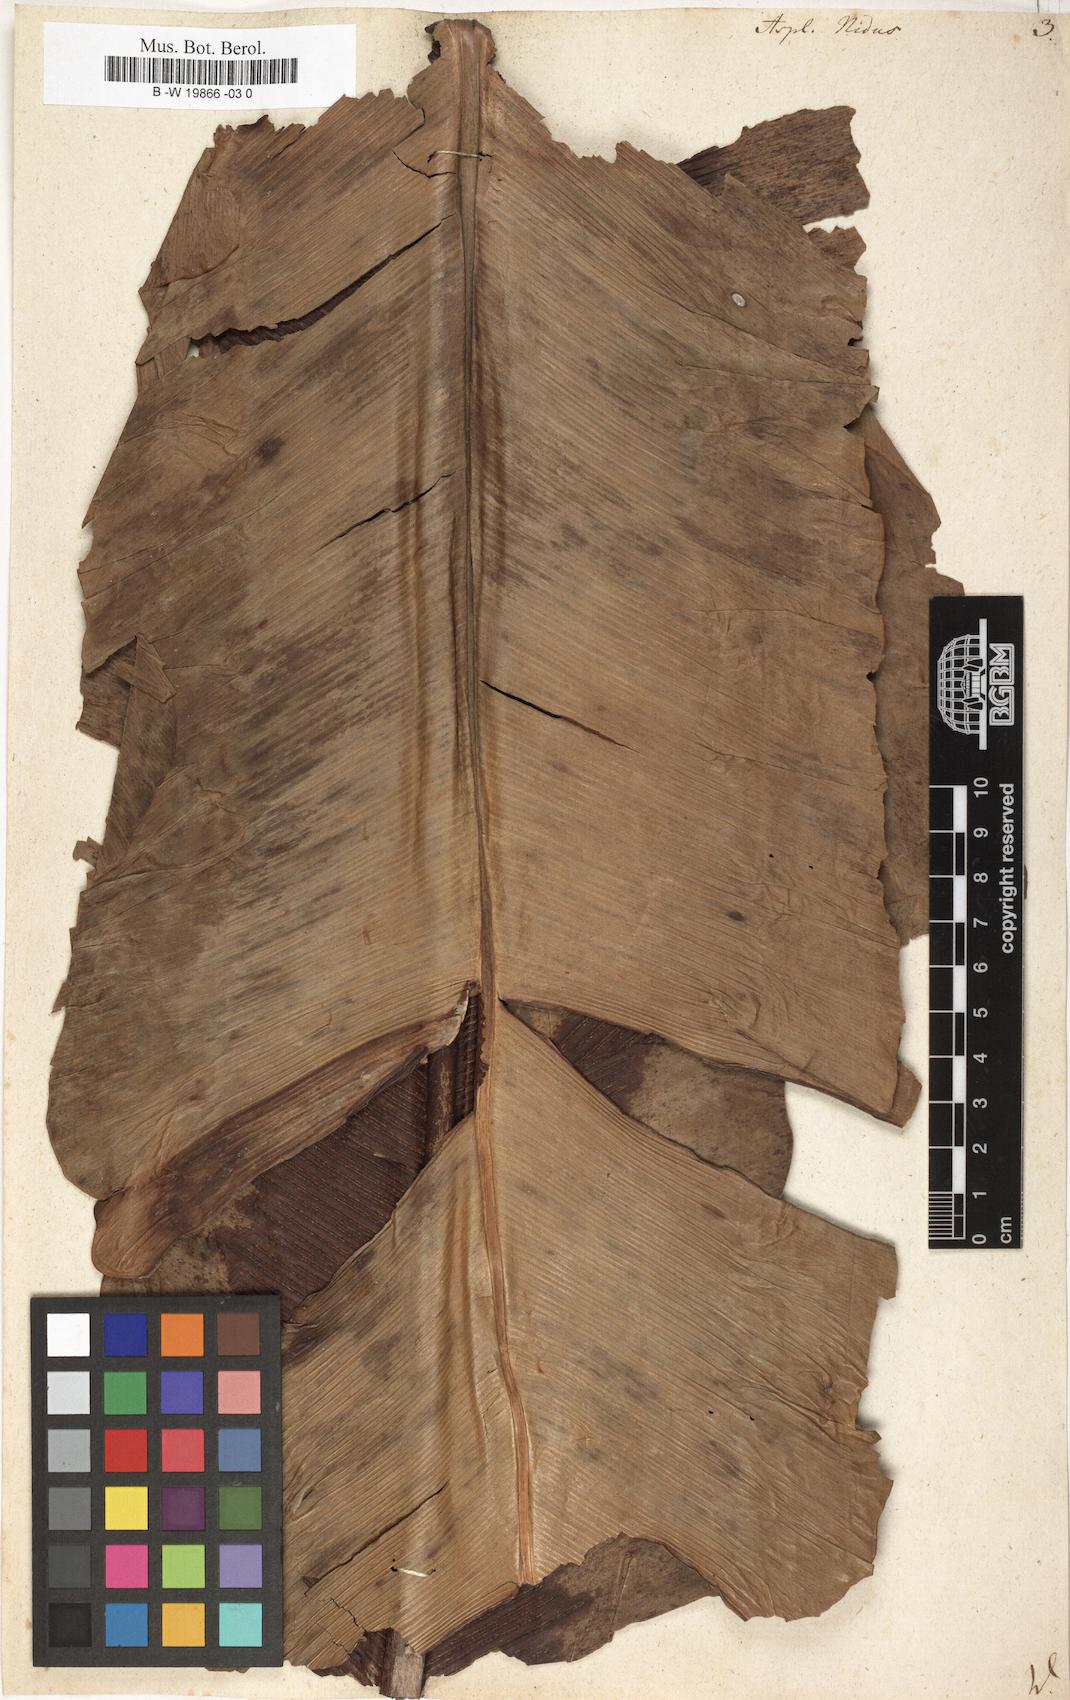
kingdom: Plantae
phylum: Tracheophyta
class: Polypodiopsida
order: Polypodiales
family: Aspleniaceae
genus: Asplenium
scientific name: Asplenium nidus
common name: Bird's-nest fern
